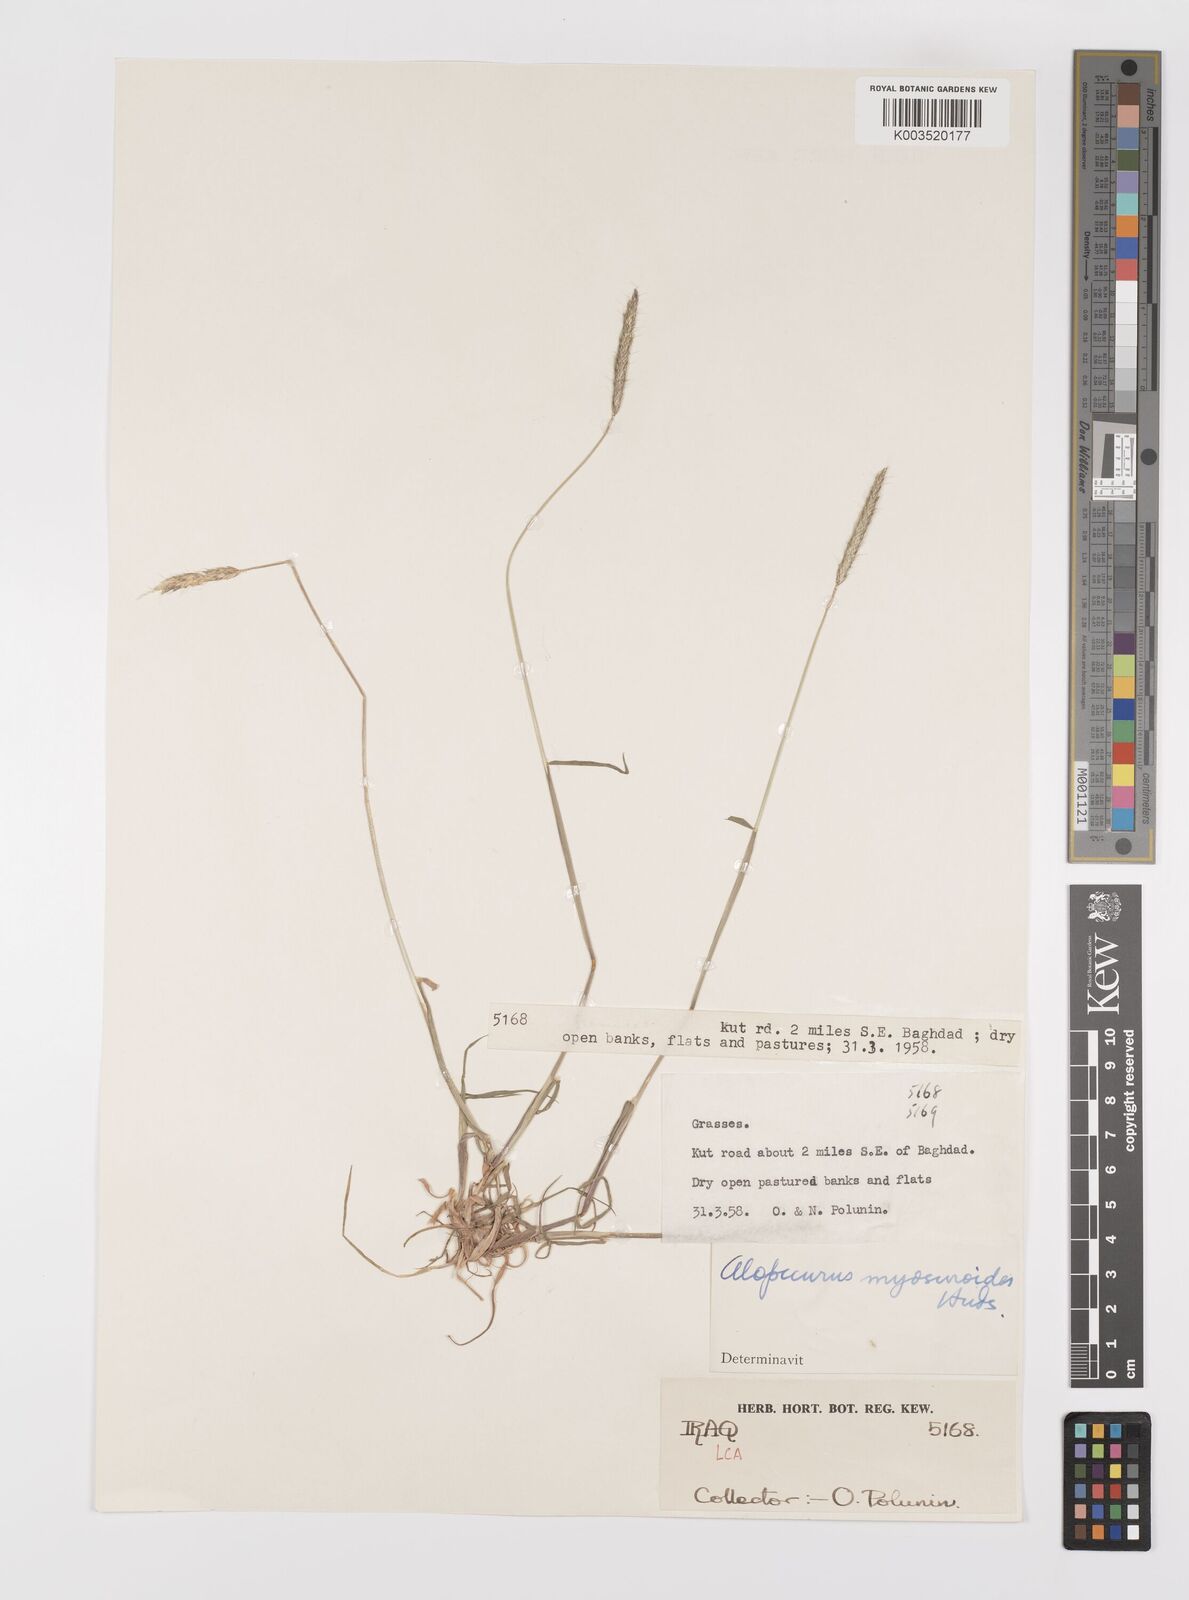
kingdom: Plantae
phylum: Tracheophyta
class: Liliopsida
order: Poales
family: Poaceae
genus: Alopecurus
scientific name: Alopecurus myosuroides
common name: Black-grass
